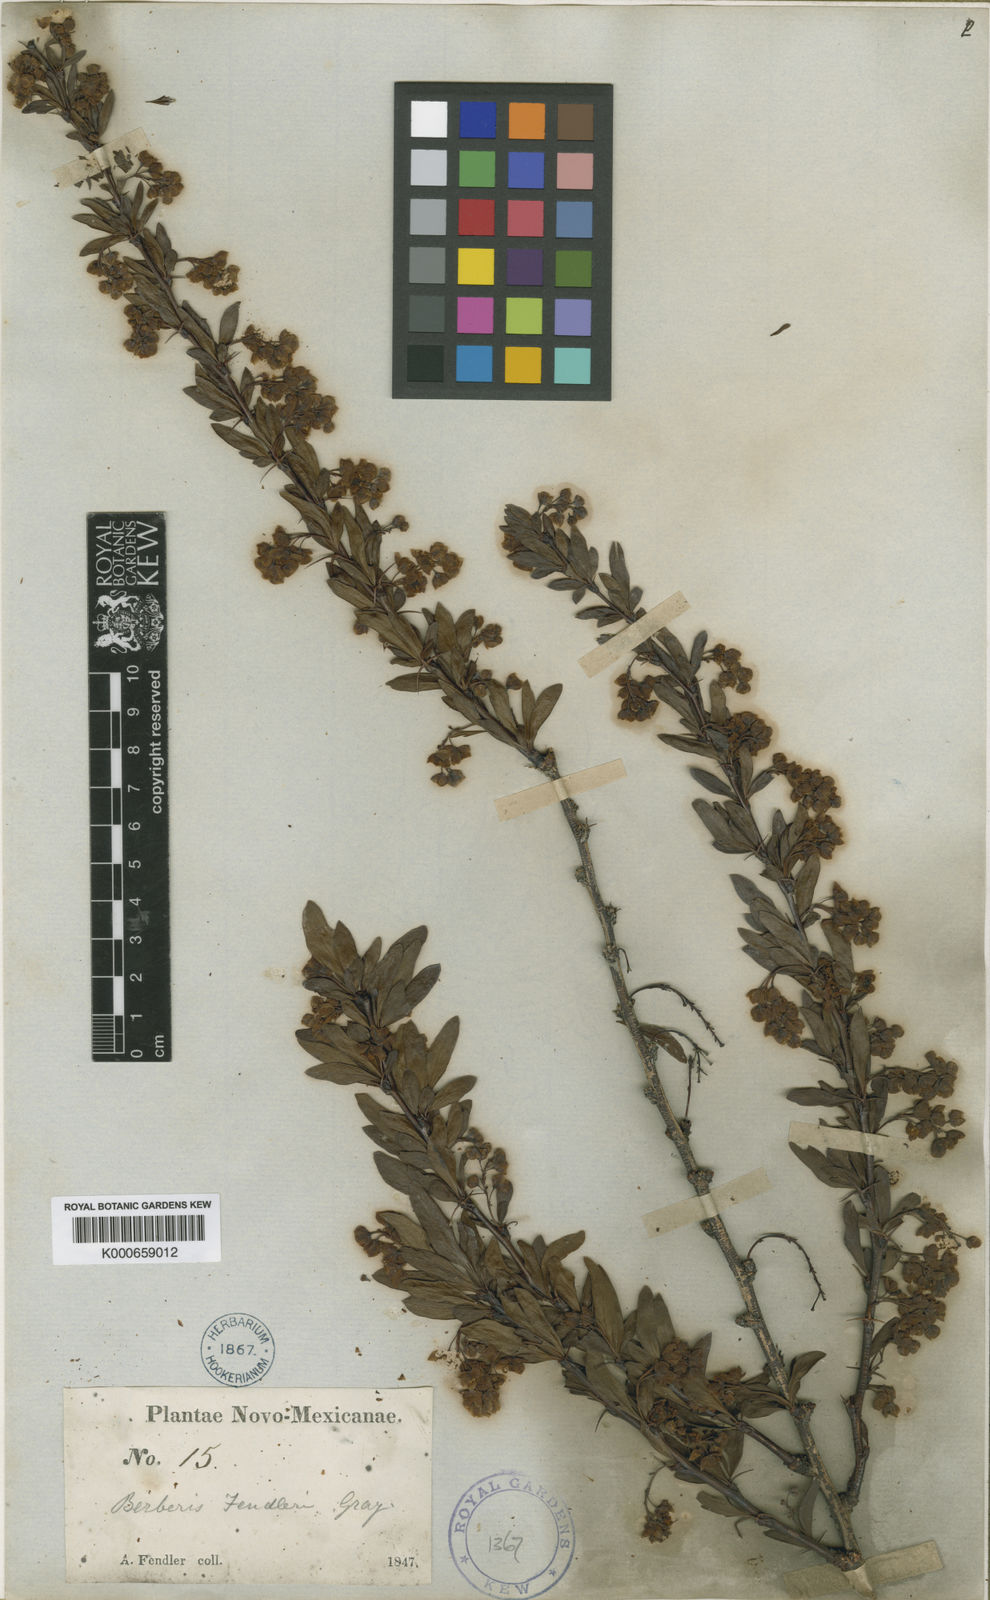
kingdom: Plantae
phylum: Tracheophyta
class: Magnoliopsida
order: Ranunculales
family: Berberidaceae
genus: Berberis
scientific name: Berberis fendleri
